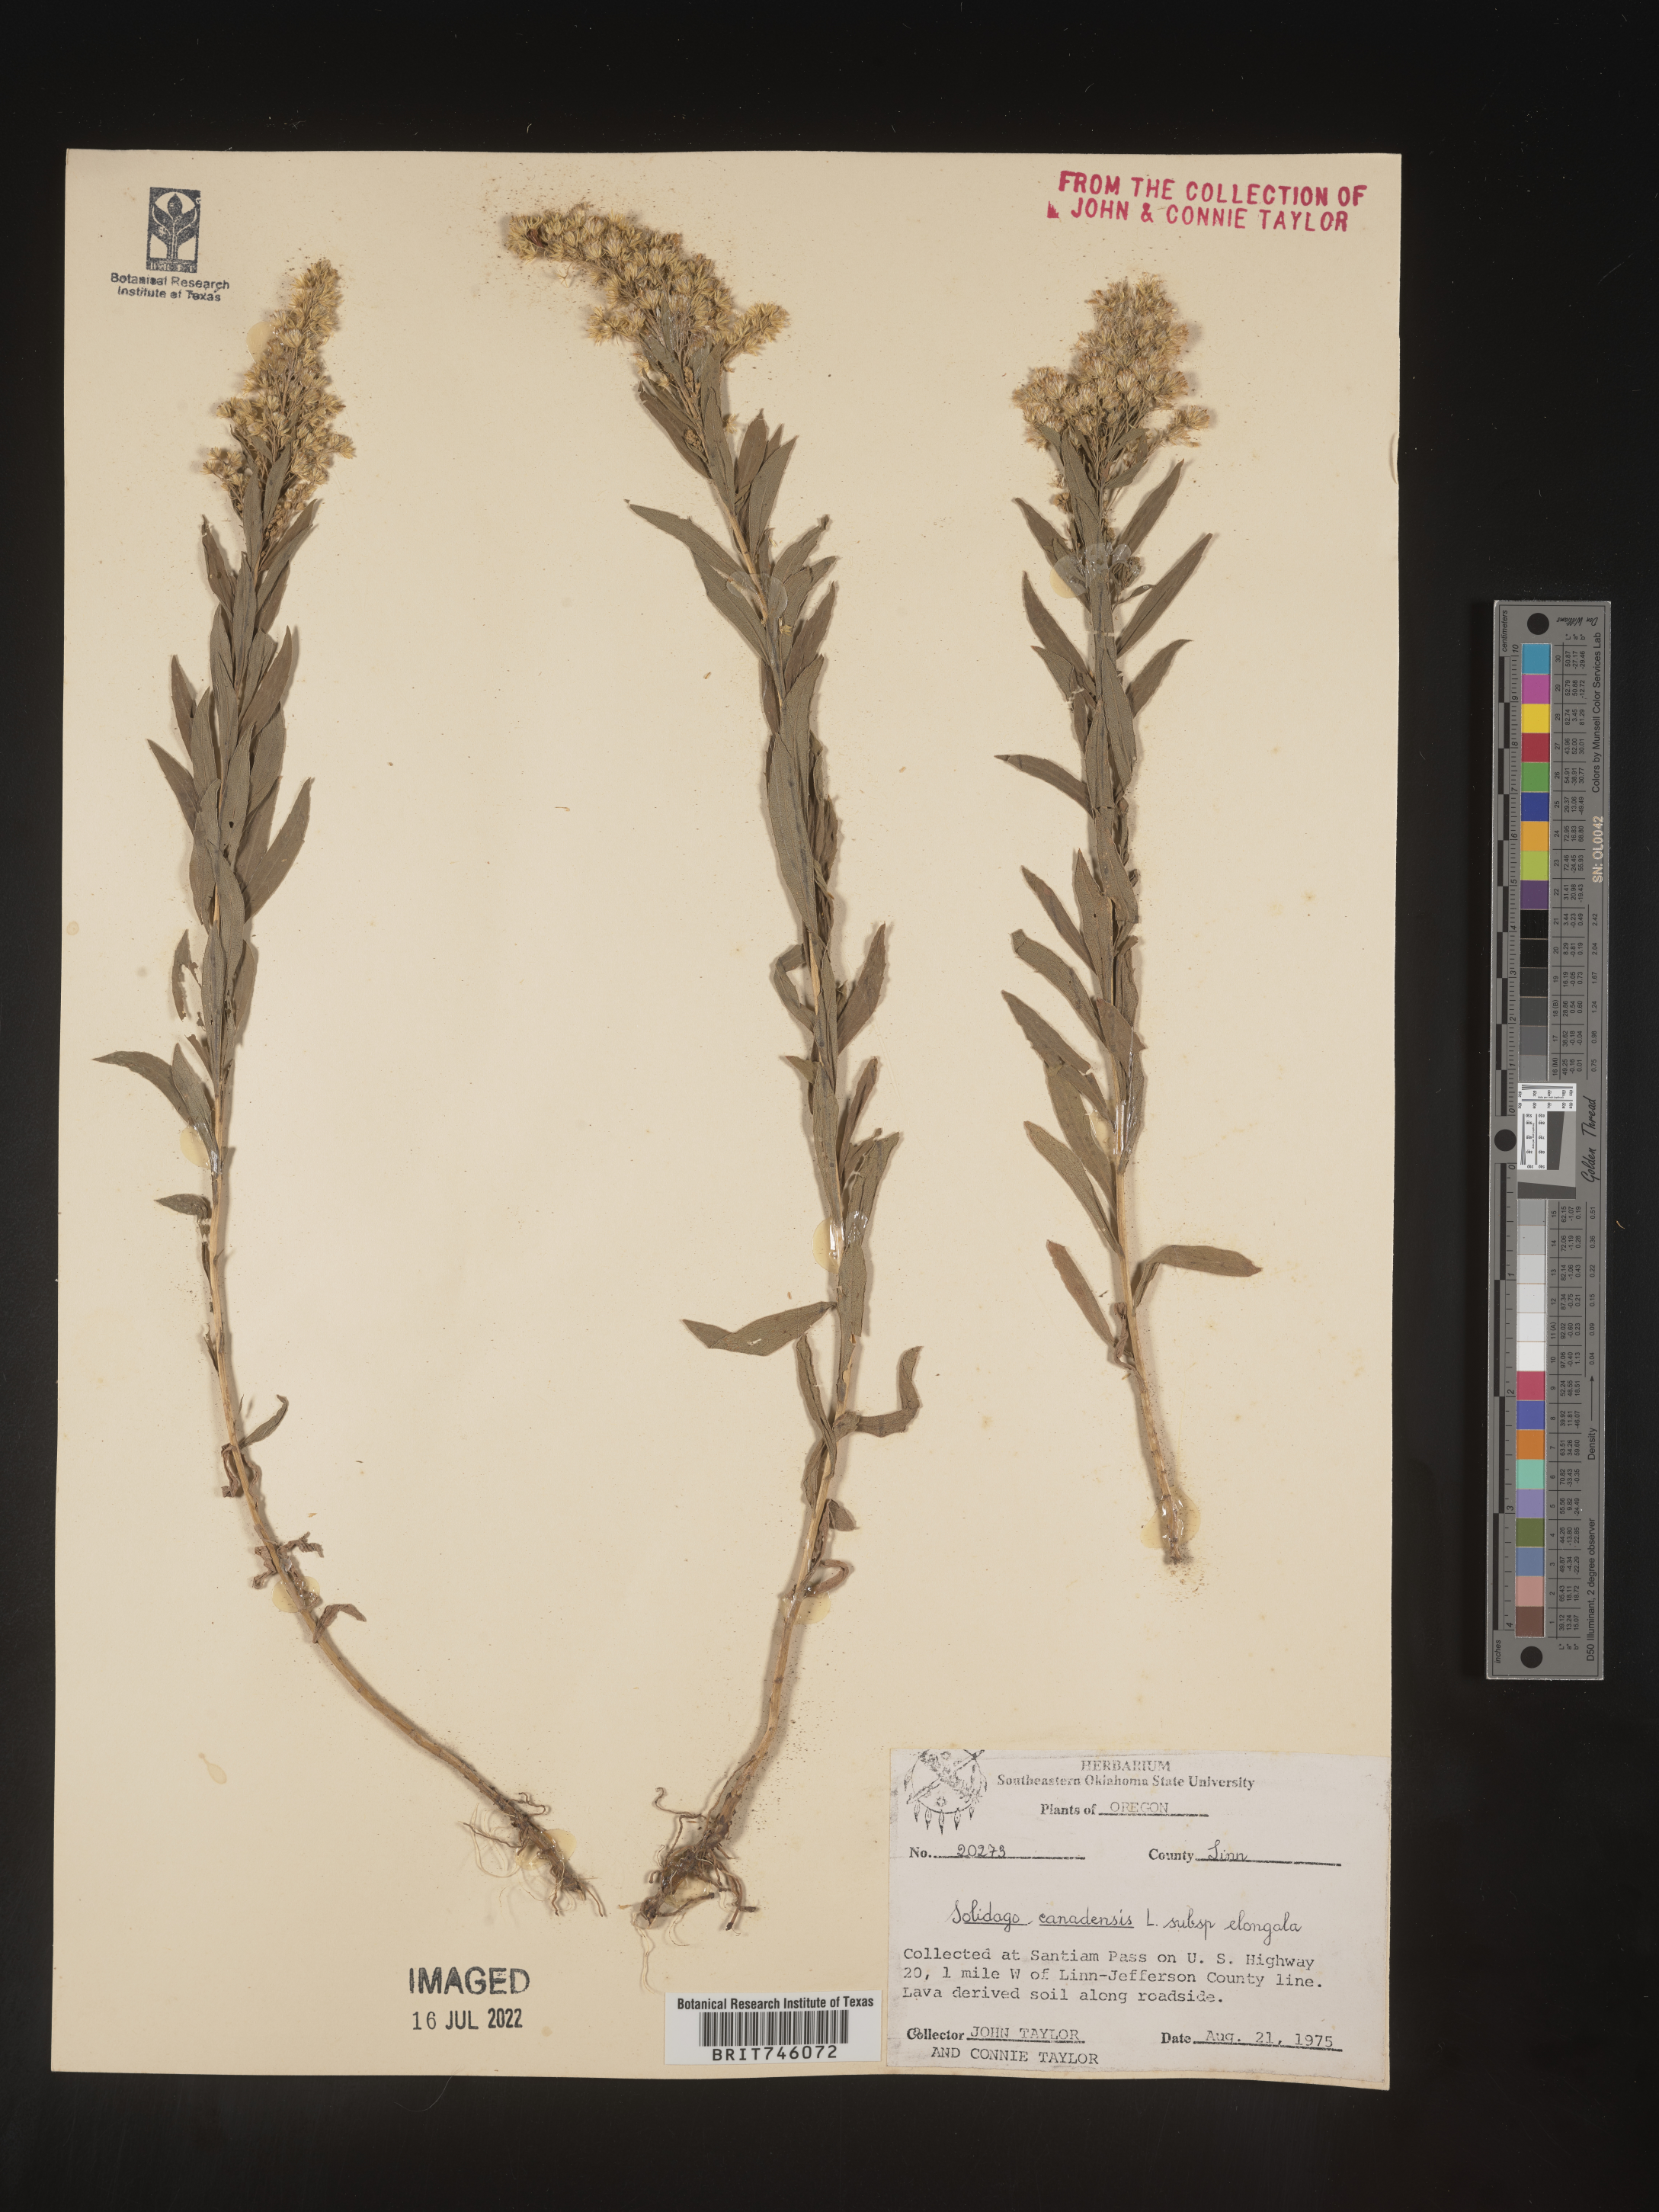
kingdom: Plantae
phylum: Tracheophyta
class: Magnoliopsida
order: Asterales
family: Asteraceae
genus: Solidago
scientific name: Solidago elongata
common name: Cascade canada goldenrod
